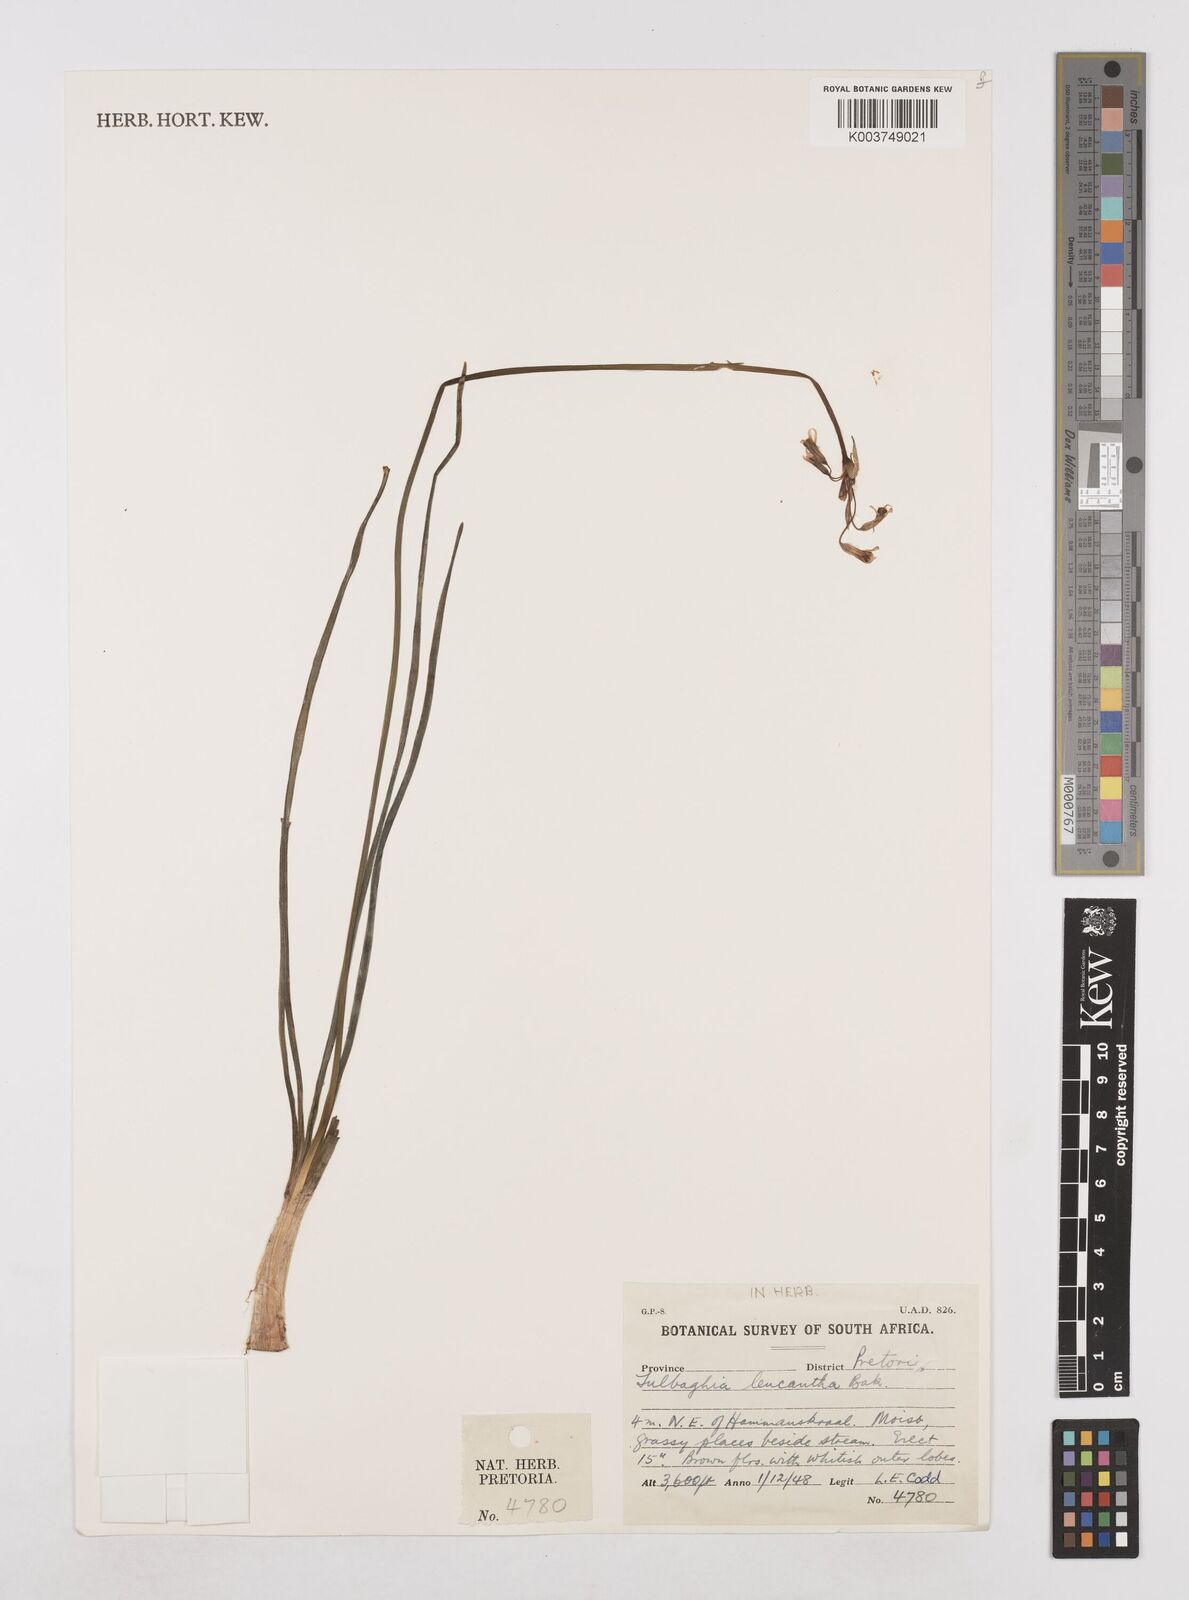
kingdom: Plantae
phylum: Tracheophyta
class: Liliopsida
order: Asparagales
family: Amaryllidaceae
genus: Tulbaghia
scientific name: Tulbaghia leucantha
